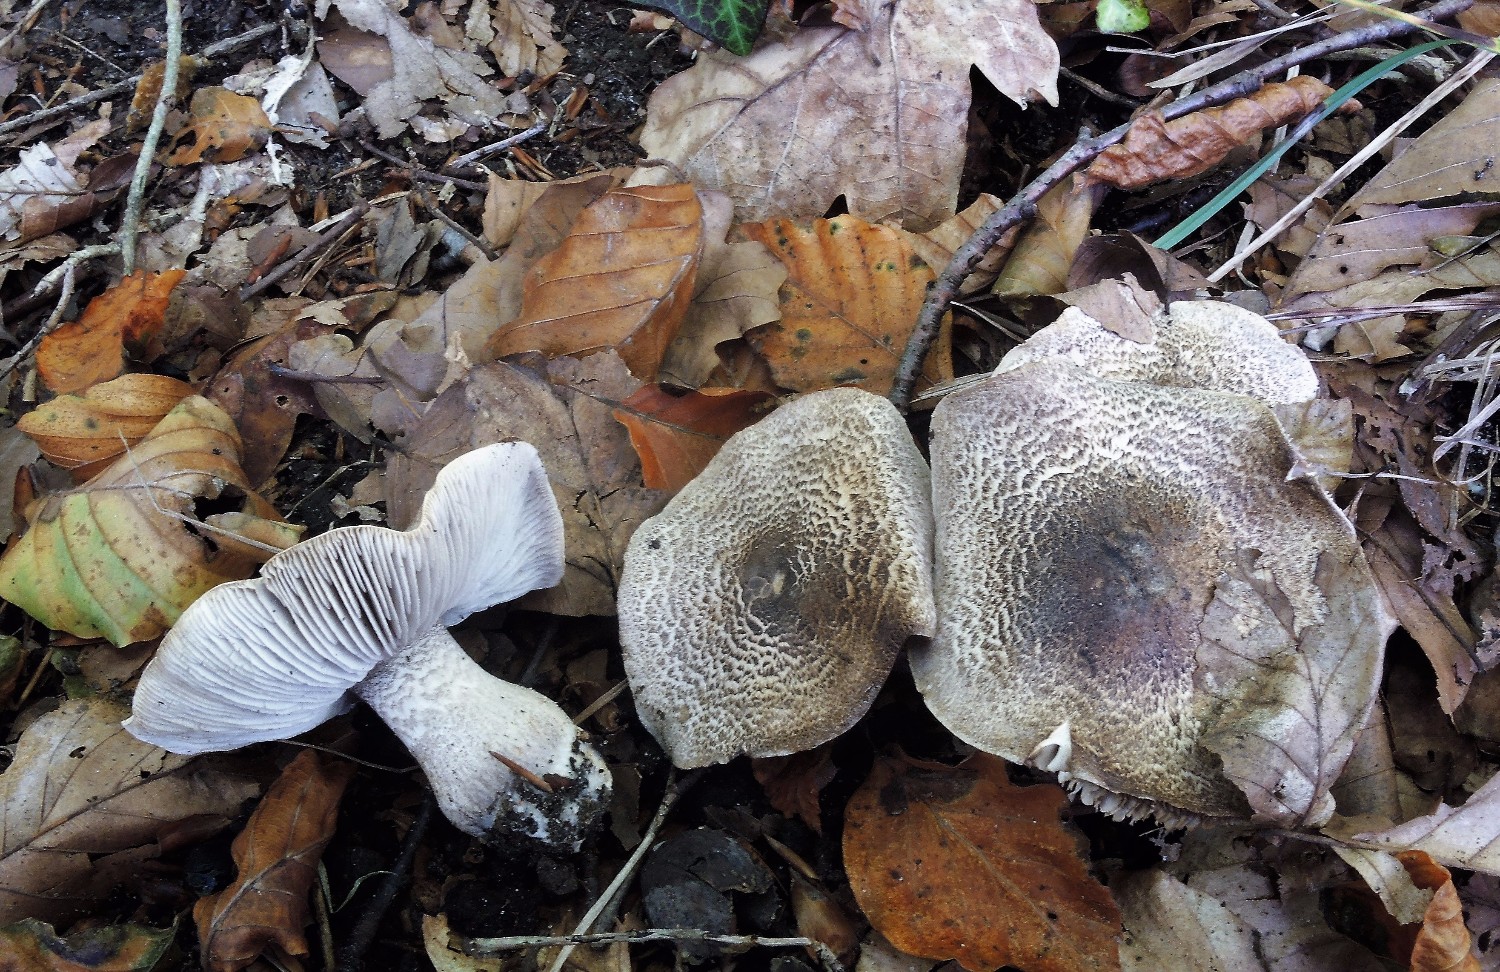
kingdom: Fungi
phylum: Basidiomycota
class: Agaricomycetes
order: Agaricales
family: Tricholomataceae
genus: Tricholoma
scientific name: Tricholoma atrosquamosum
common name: sortskællet ridderhat
